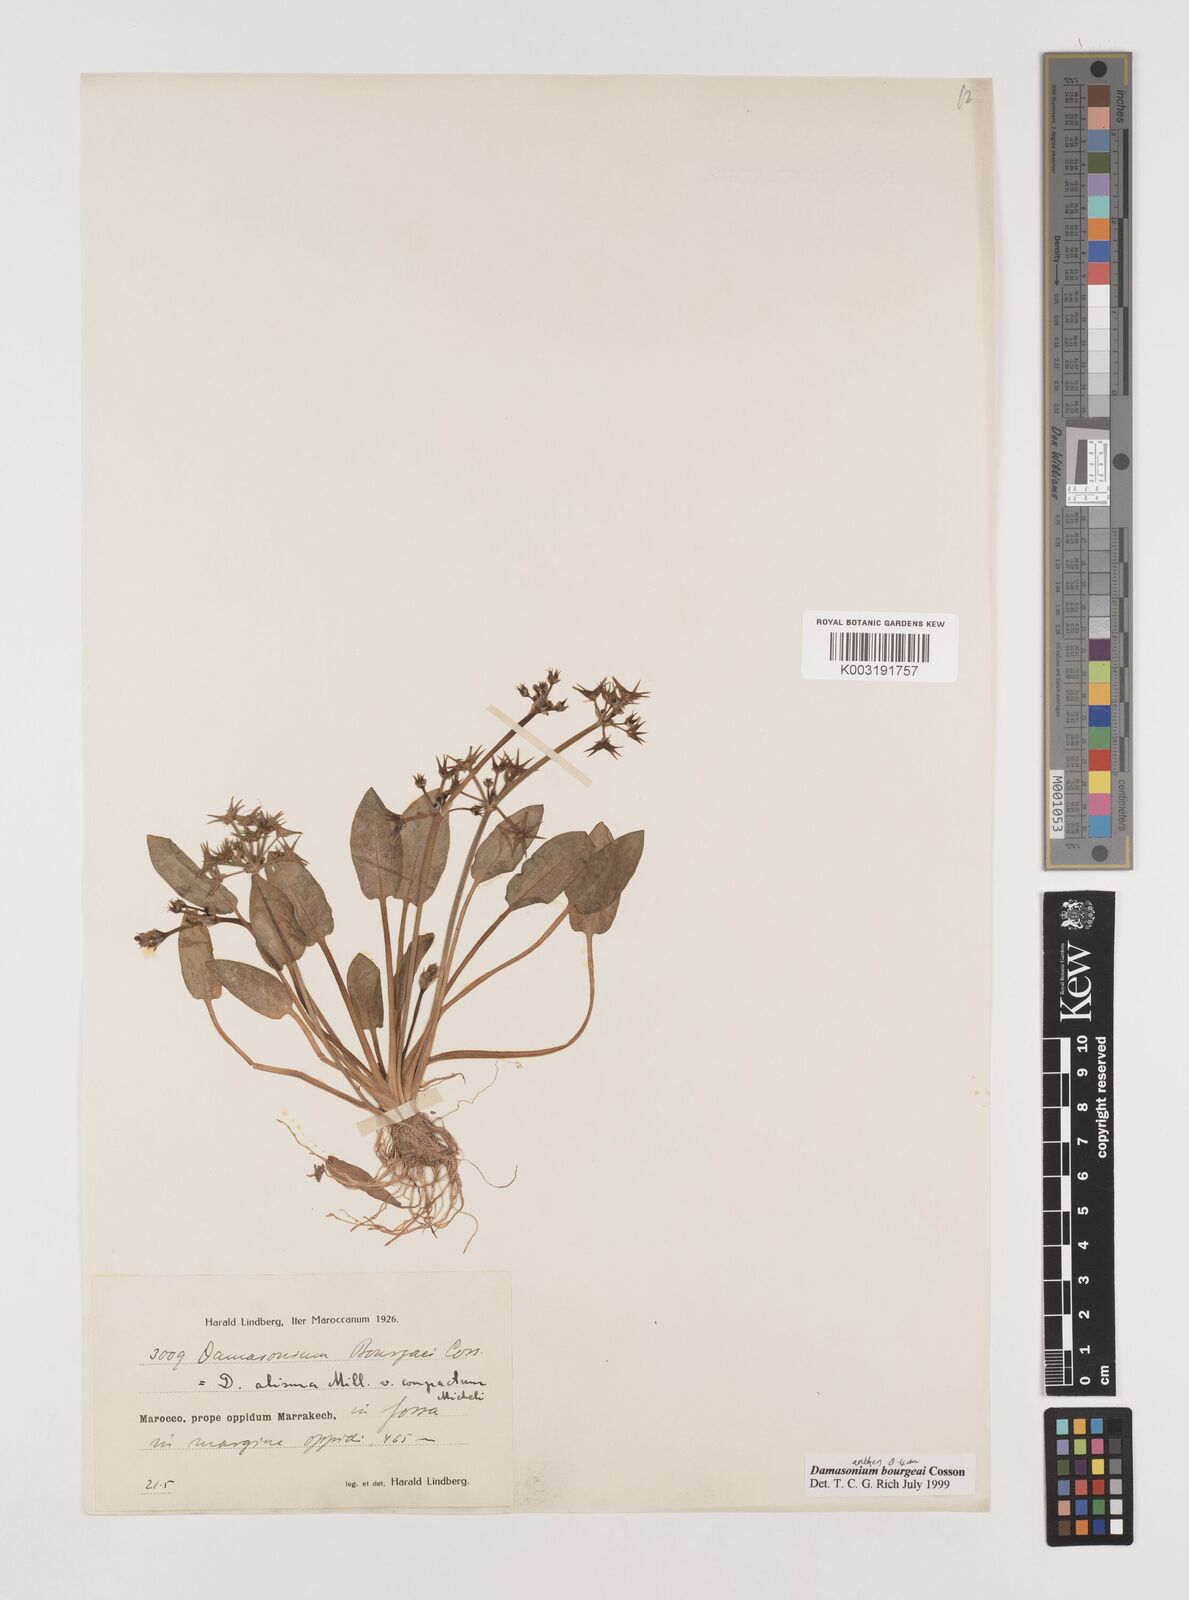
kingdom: Plantae
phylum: Tracheophyta
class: Liliopsida
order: Alismatales
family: Alismataceae
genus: Damasonium
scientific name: Damasonium bourgaei
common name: Starfruit
